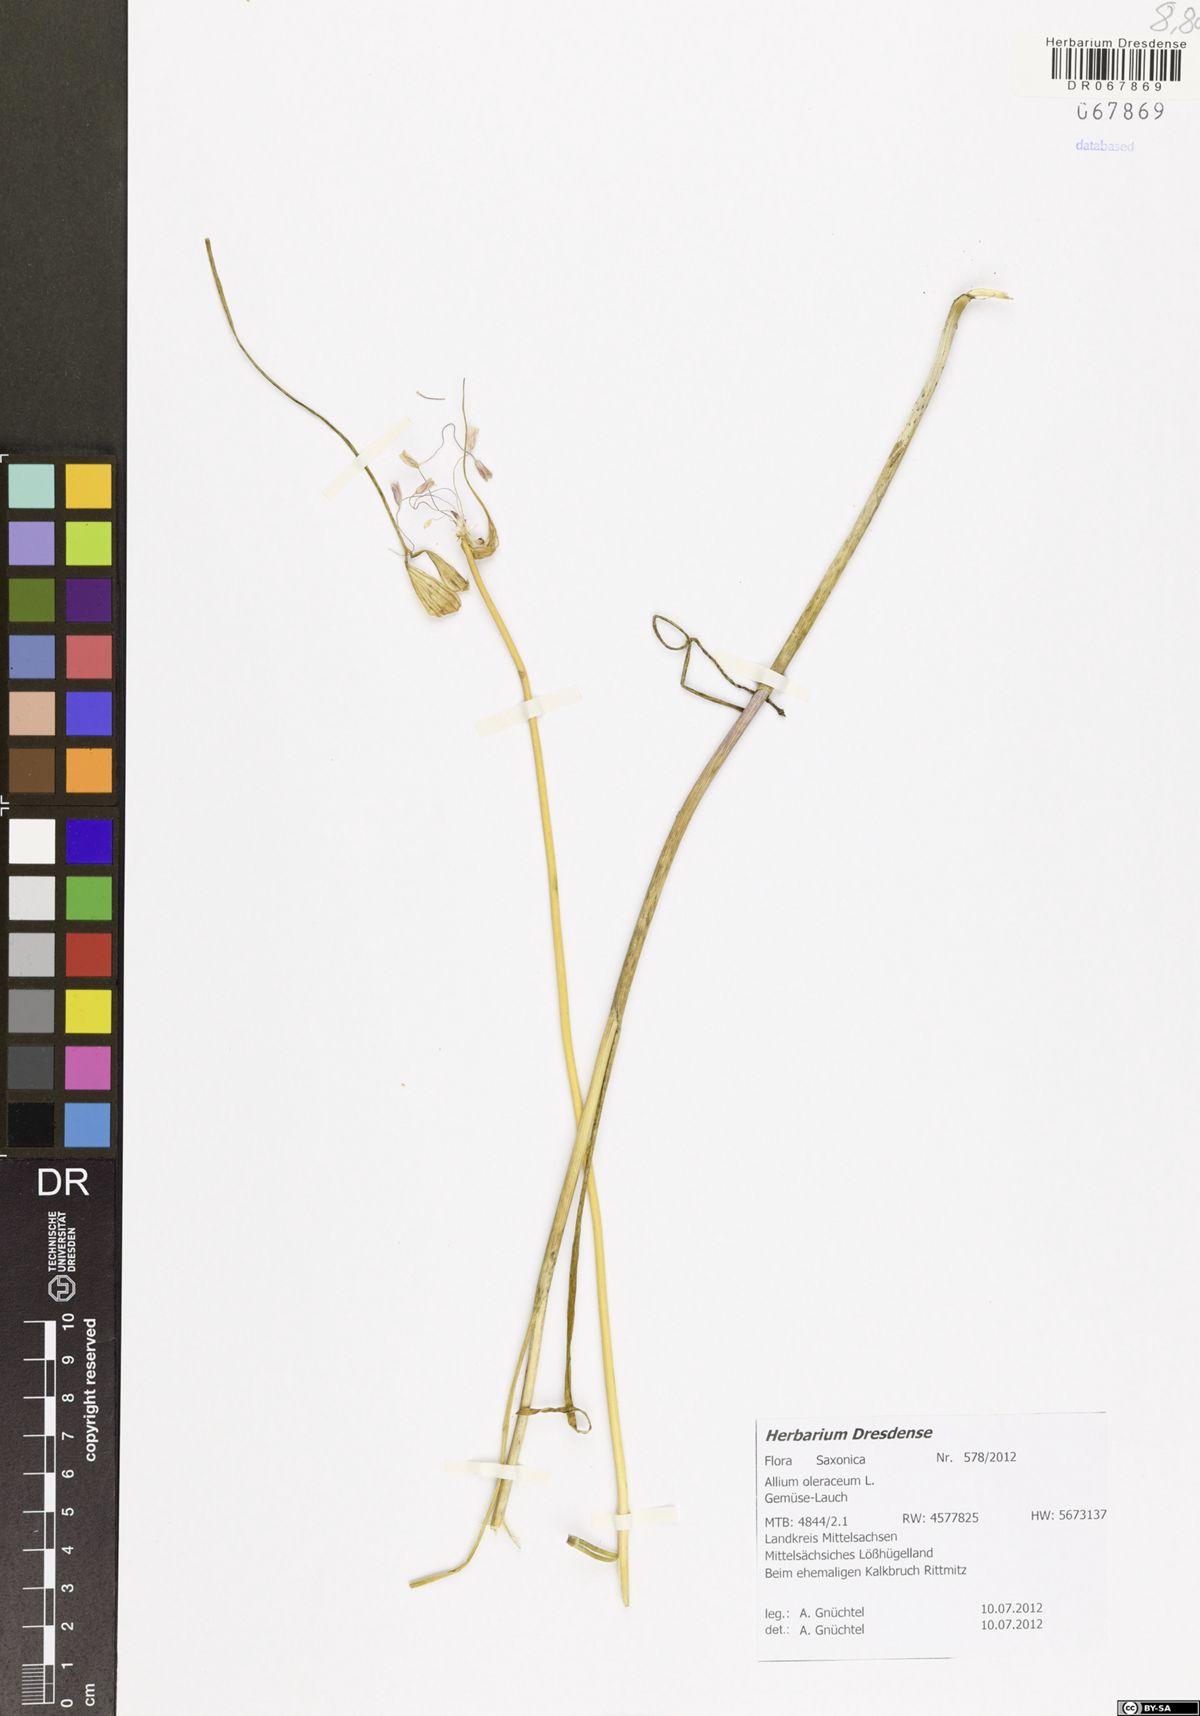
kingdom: Plantae
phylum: Tracheophyta
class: Liliopsida
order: Asparagales
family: Amaryllidaceae
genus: Allium
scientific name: Allium oleraceum
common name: Field garlic
